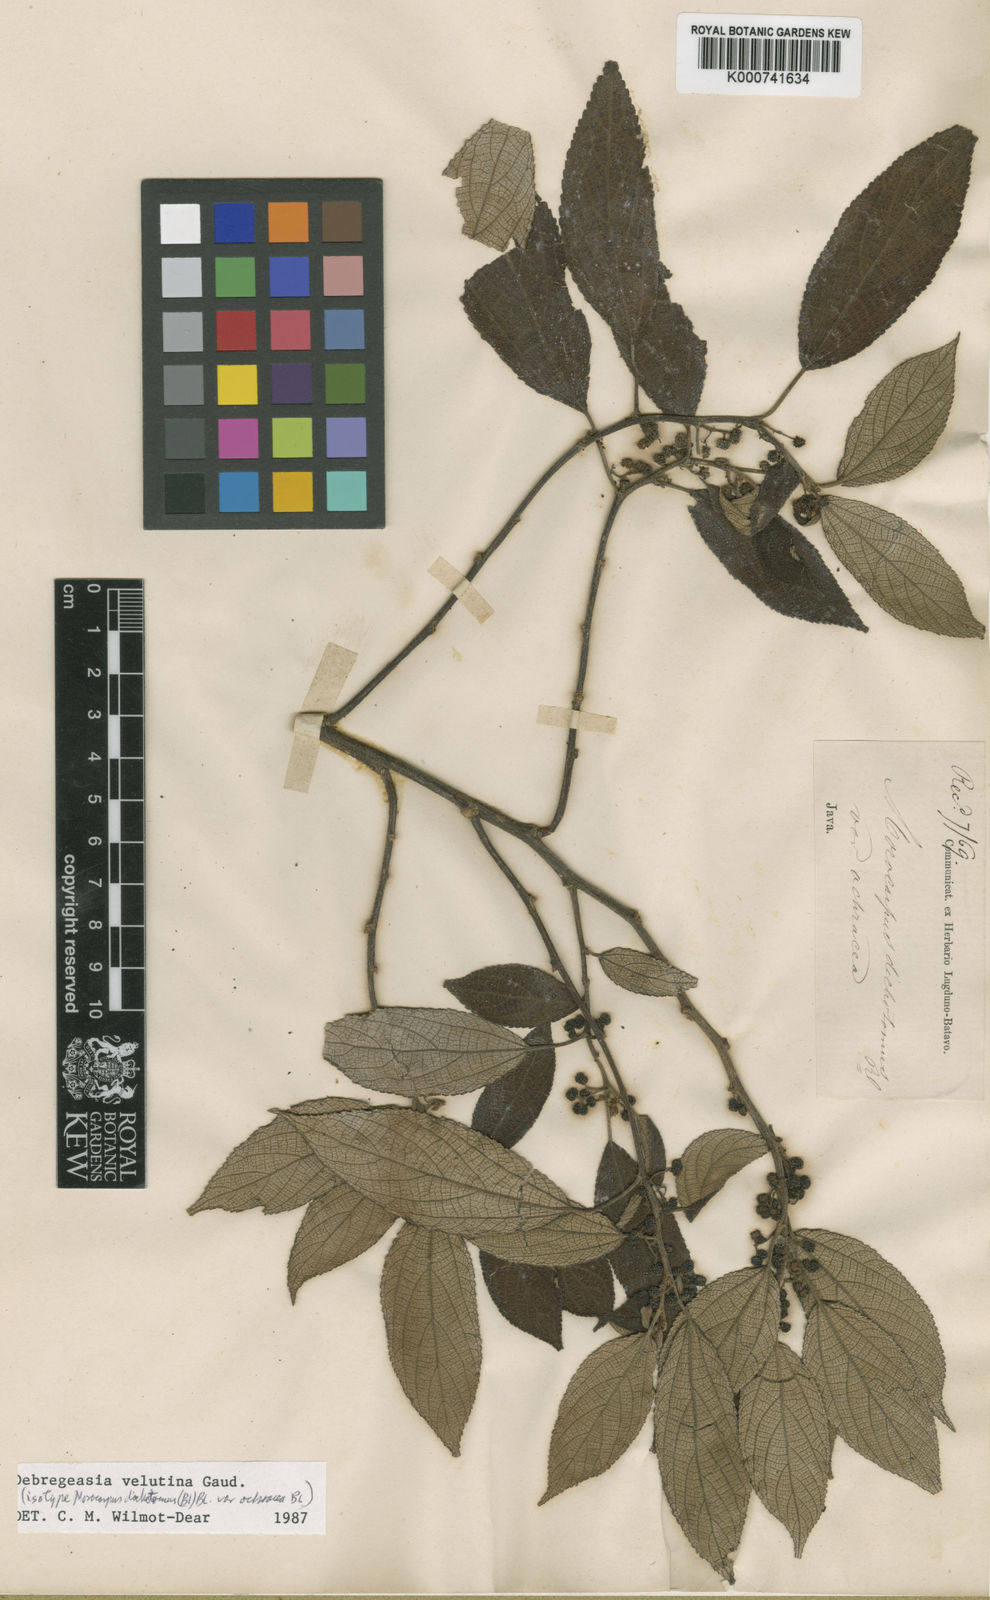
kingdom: Plantae
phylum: Tracheophyta
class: Magnoliopsida
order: Rosales
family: Urticaceae
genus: Debregeasia
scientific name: Debregeasia longifolia
